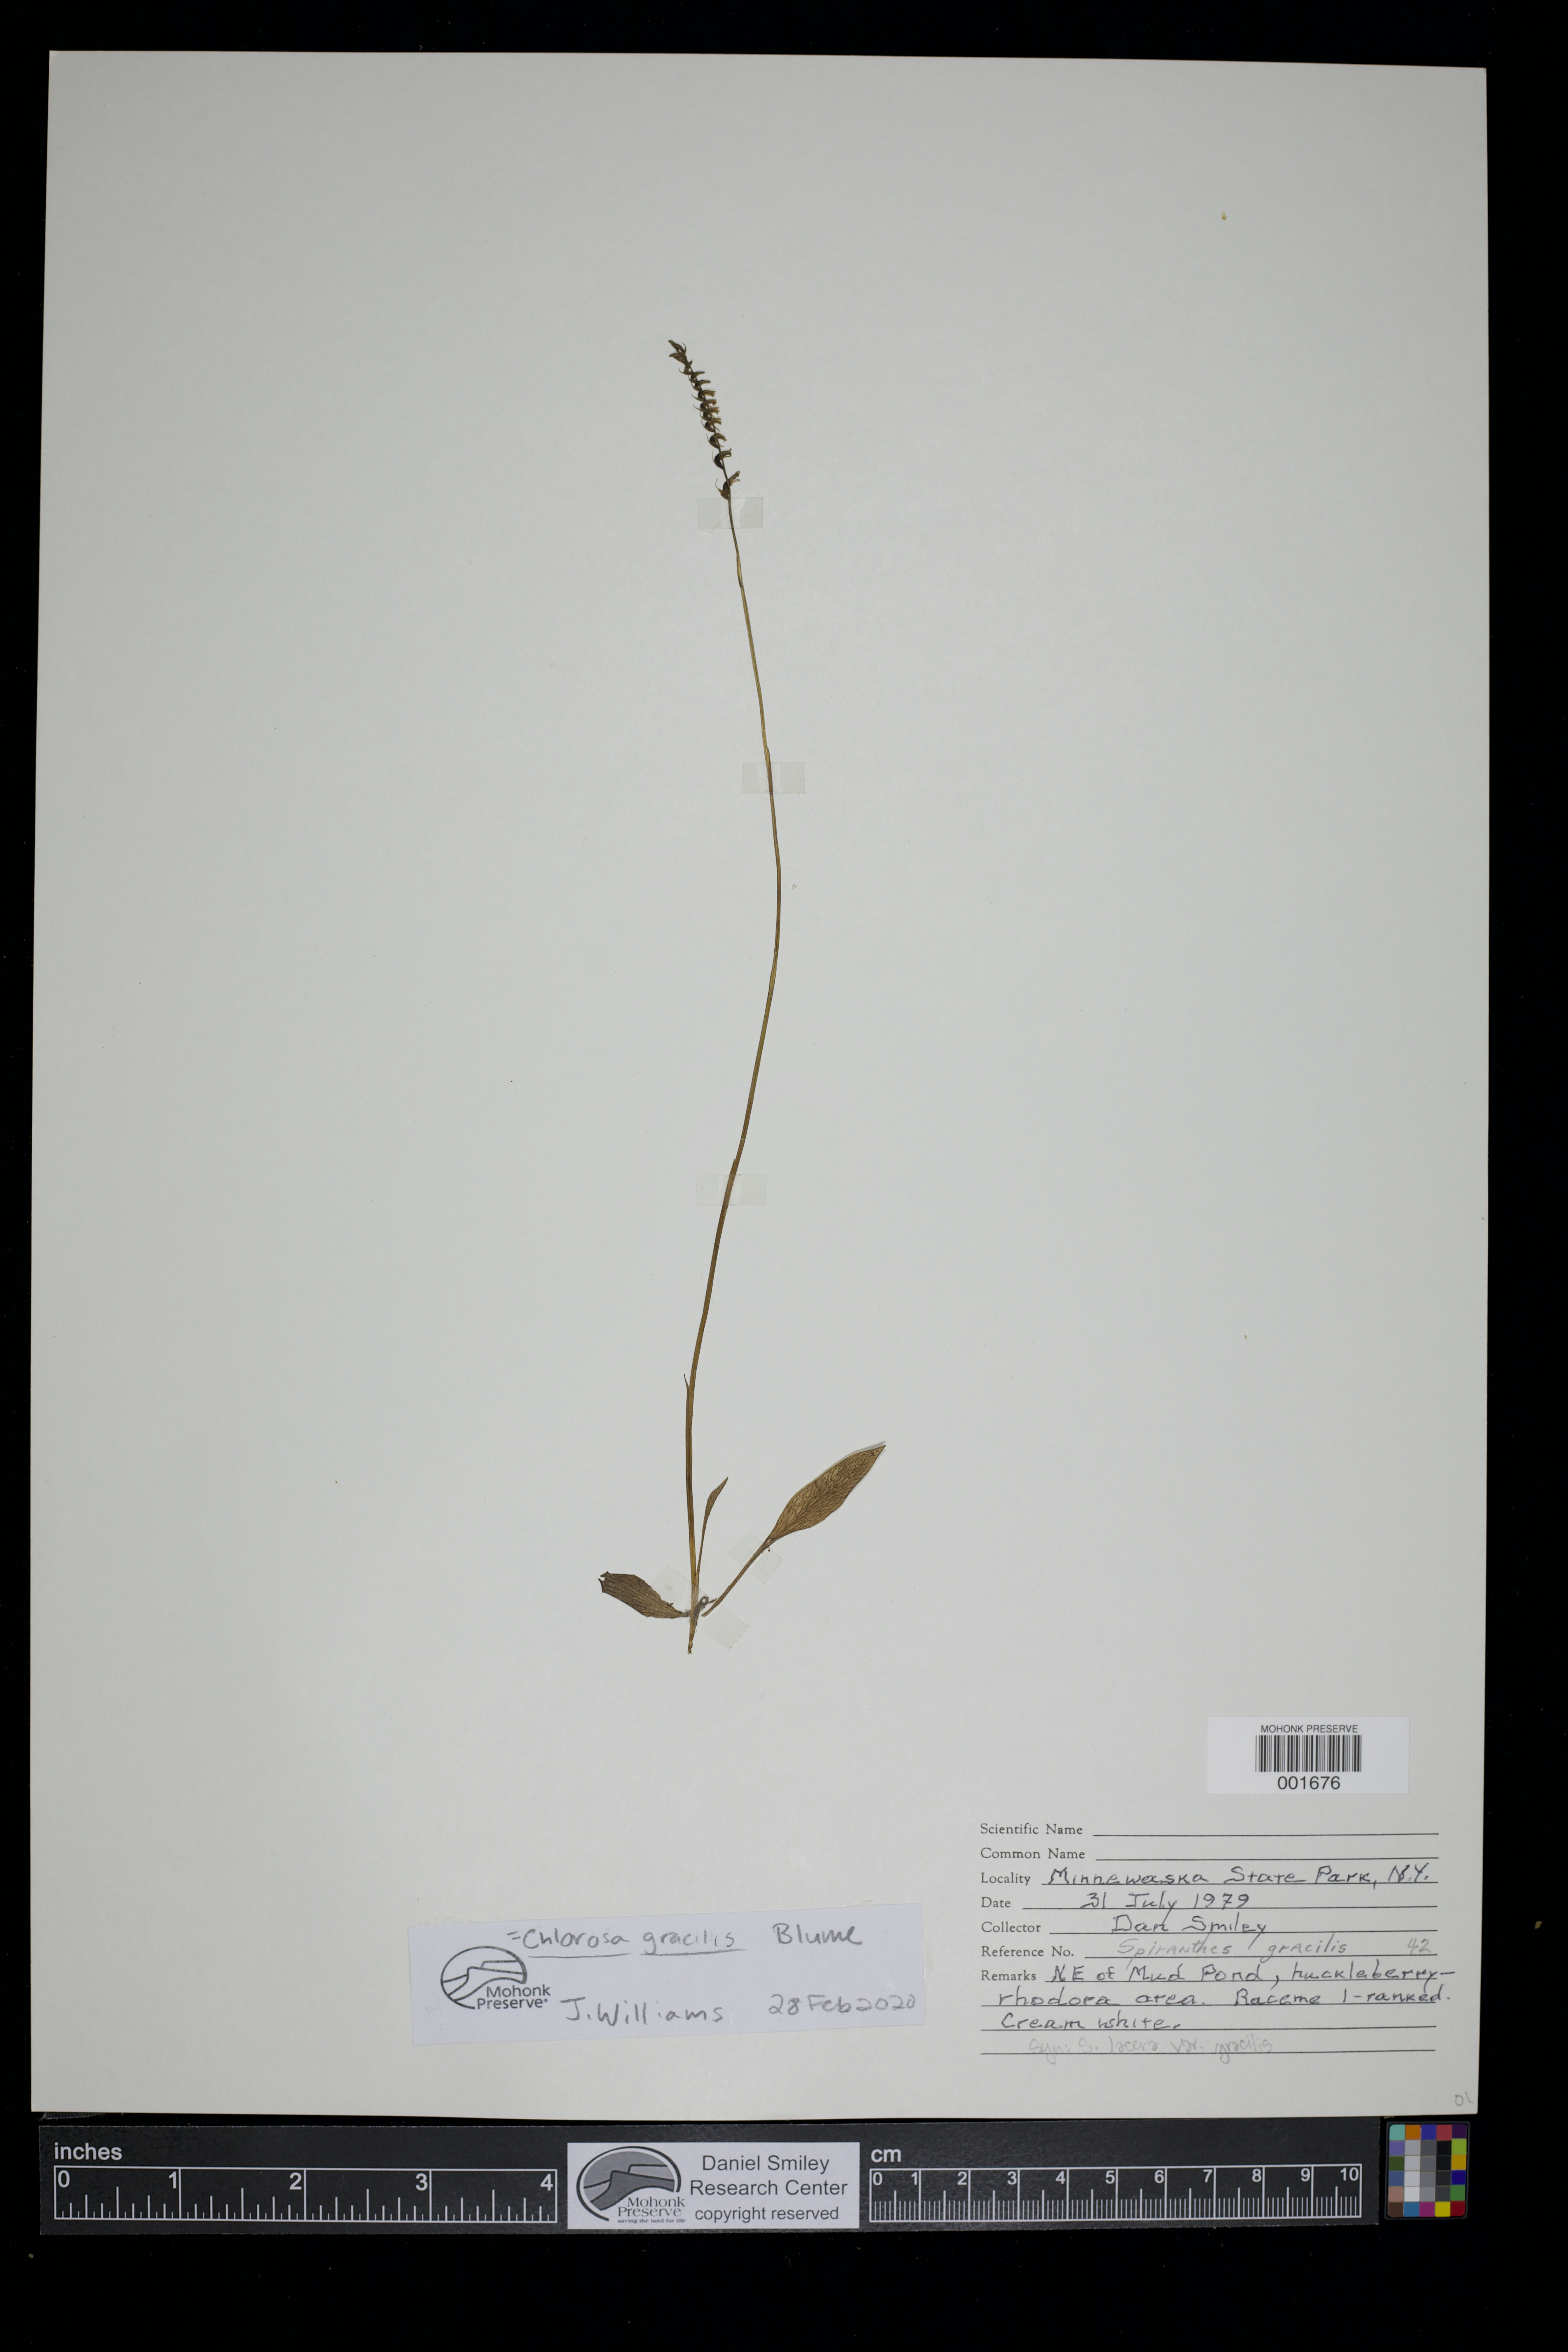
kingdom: Plantae
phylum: Tracheophyta
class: Liliopsida
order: Asparagales
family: Orchidaceae
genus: Cryptostylis
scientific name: Cryptostylis Chlorosa gracilis
